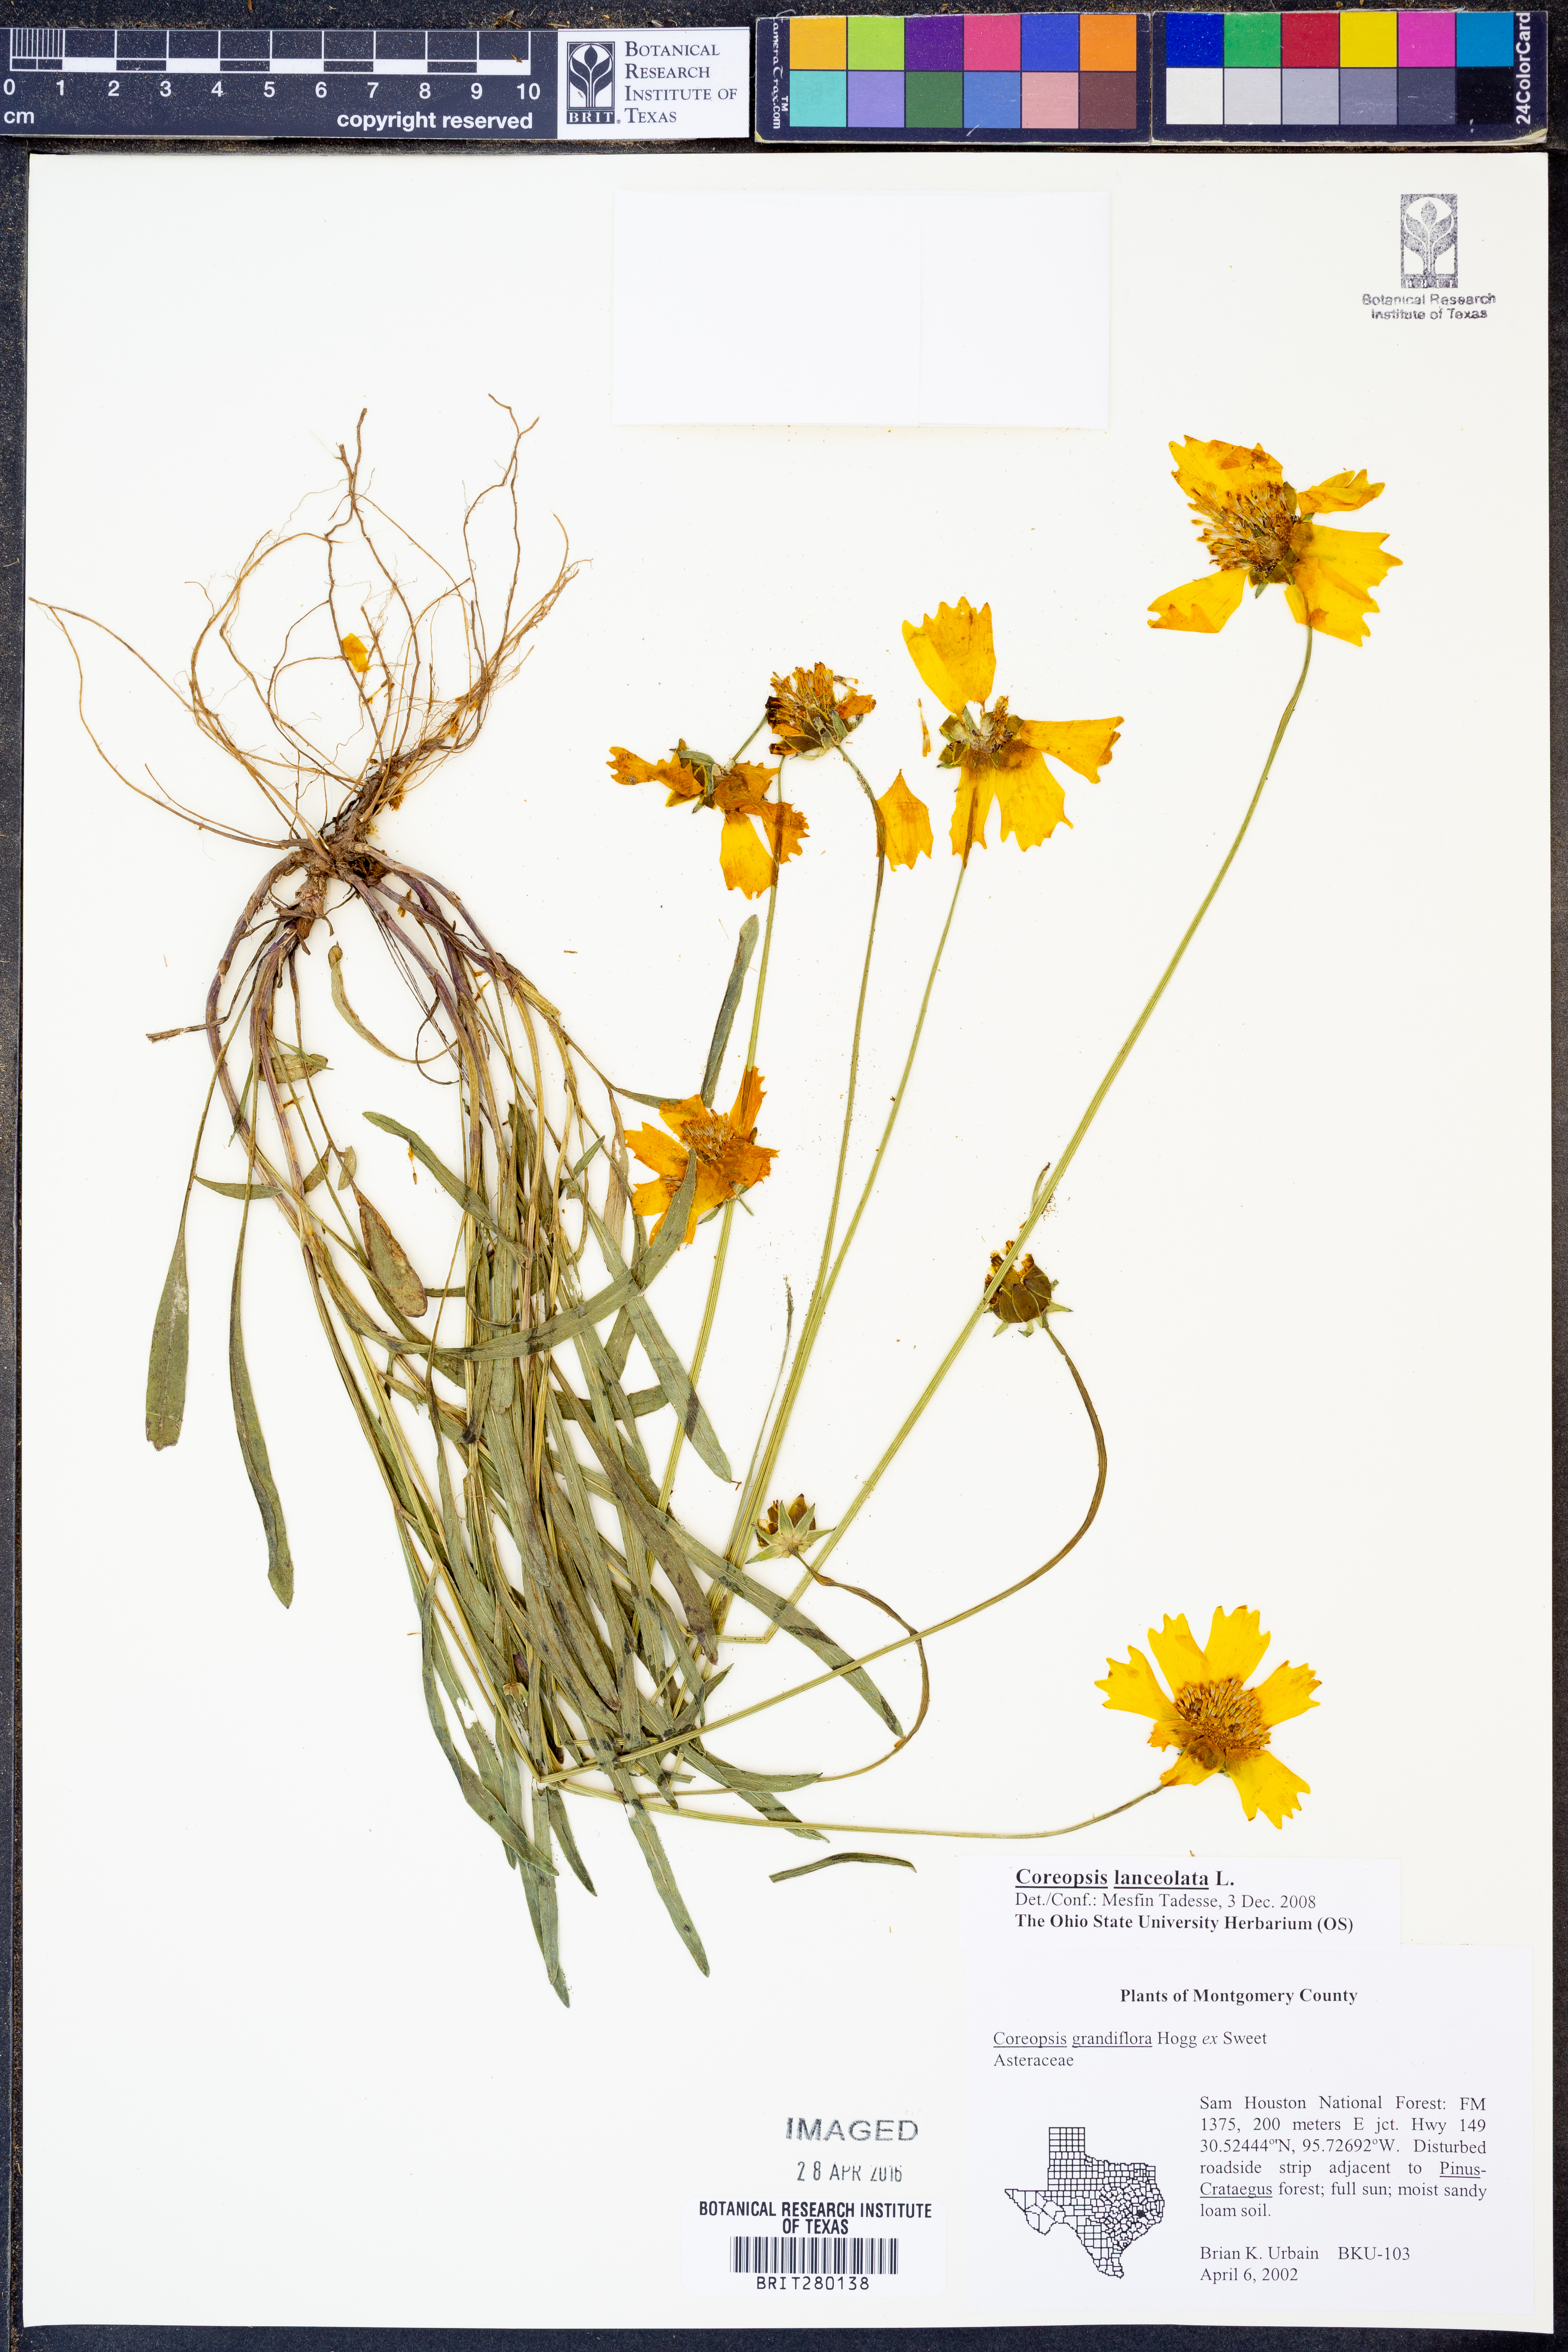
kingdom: Plantae
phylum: Tracheophyta
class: Magnoliopsida
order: Asterales
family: Asteraceae
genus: Coreopsis
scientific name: Coreopsis lanceolata
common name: Garden coreopsis
